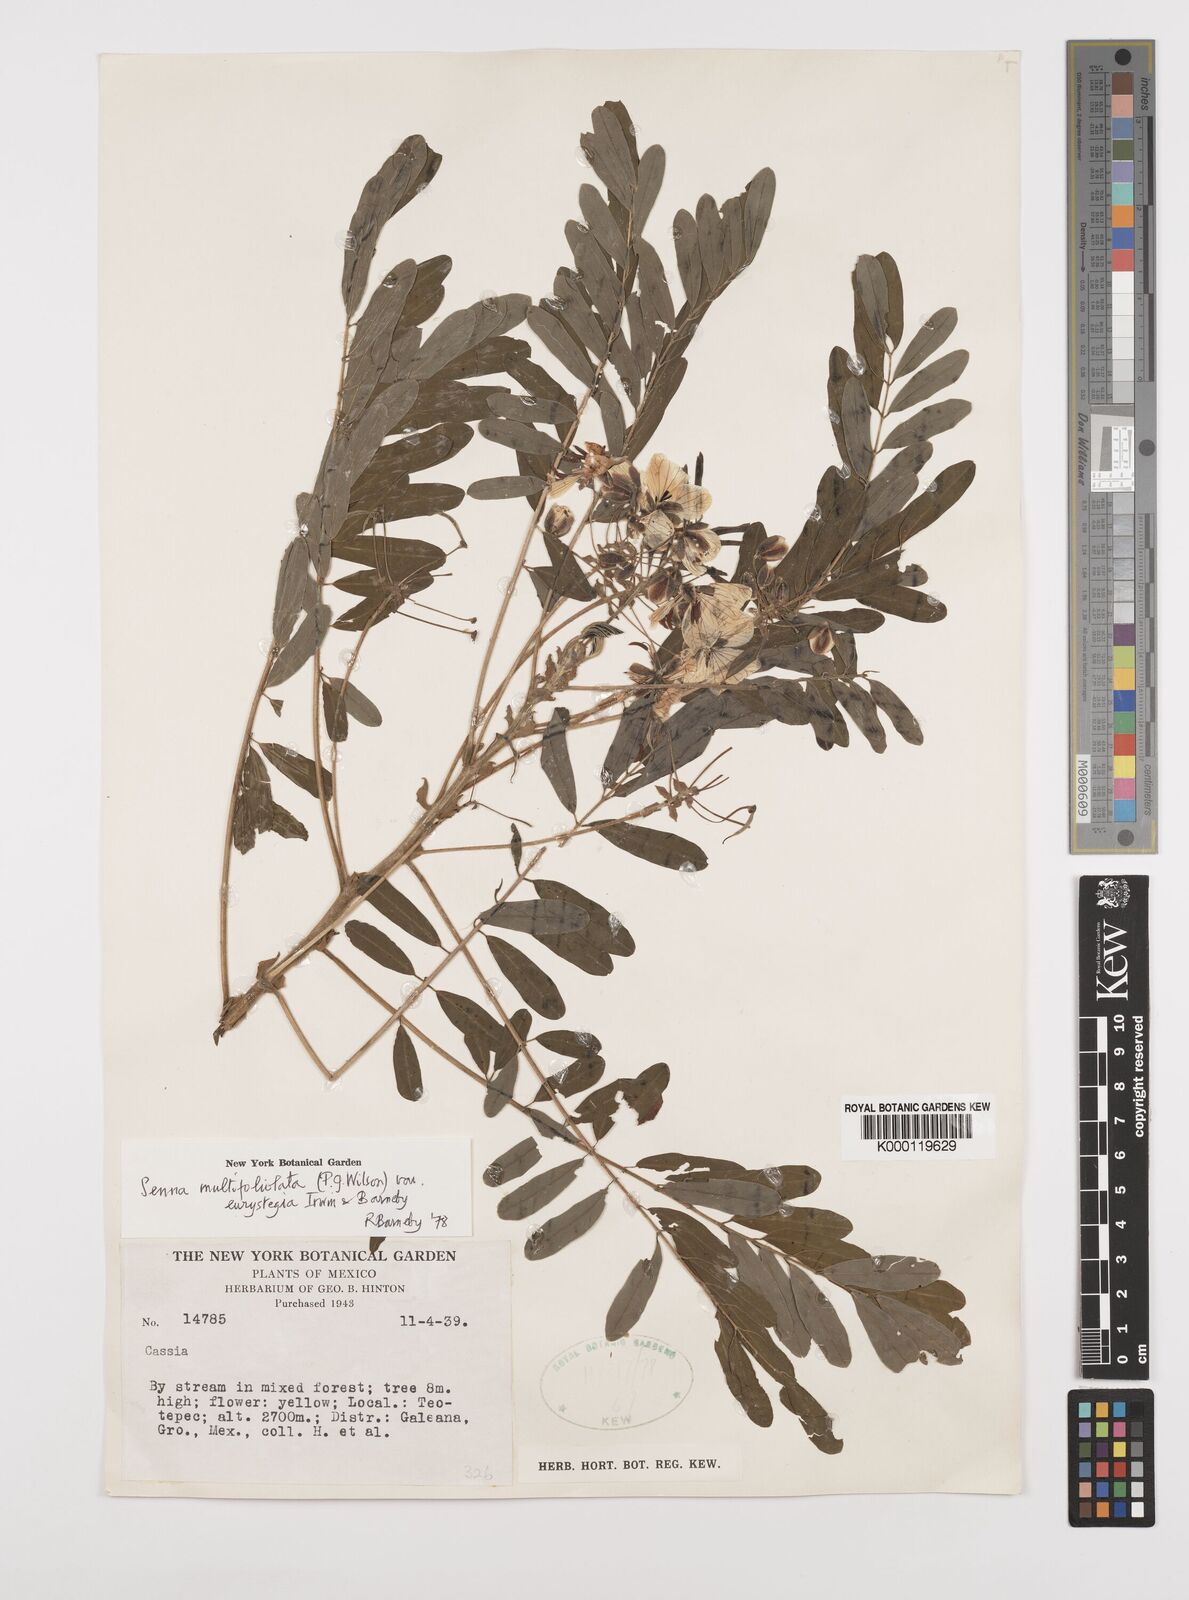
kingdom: Plantae
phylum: Tracheophyta
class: Magnoliopsida
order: Fabales
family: Fabaceae
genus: Senna
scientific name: Senna multifoliolata
